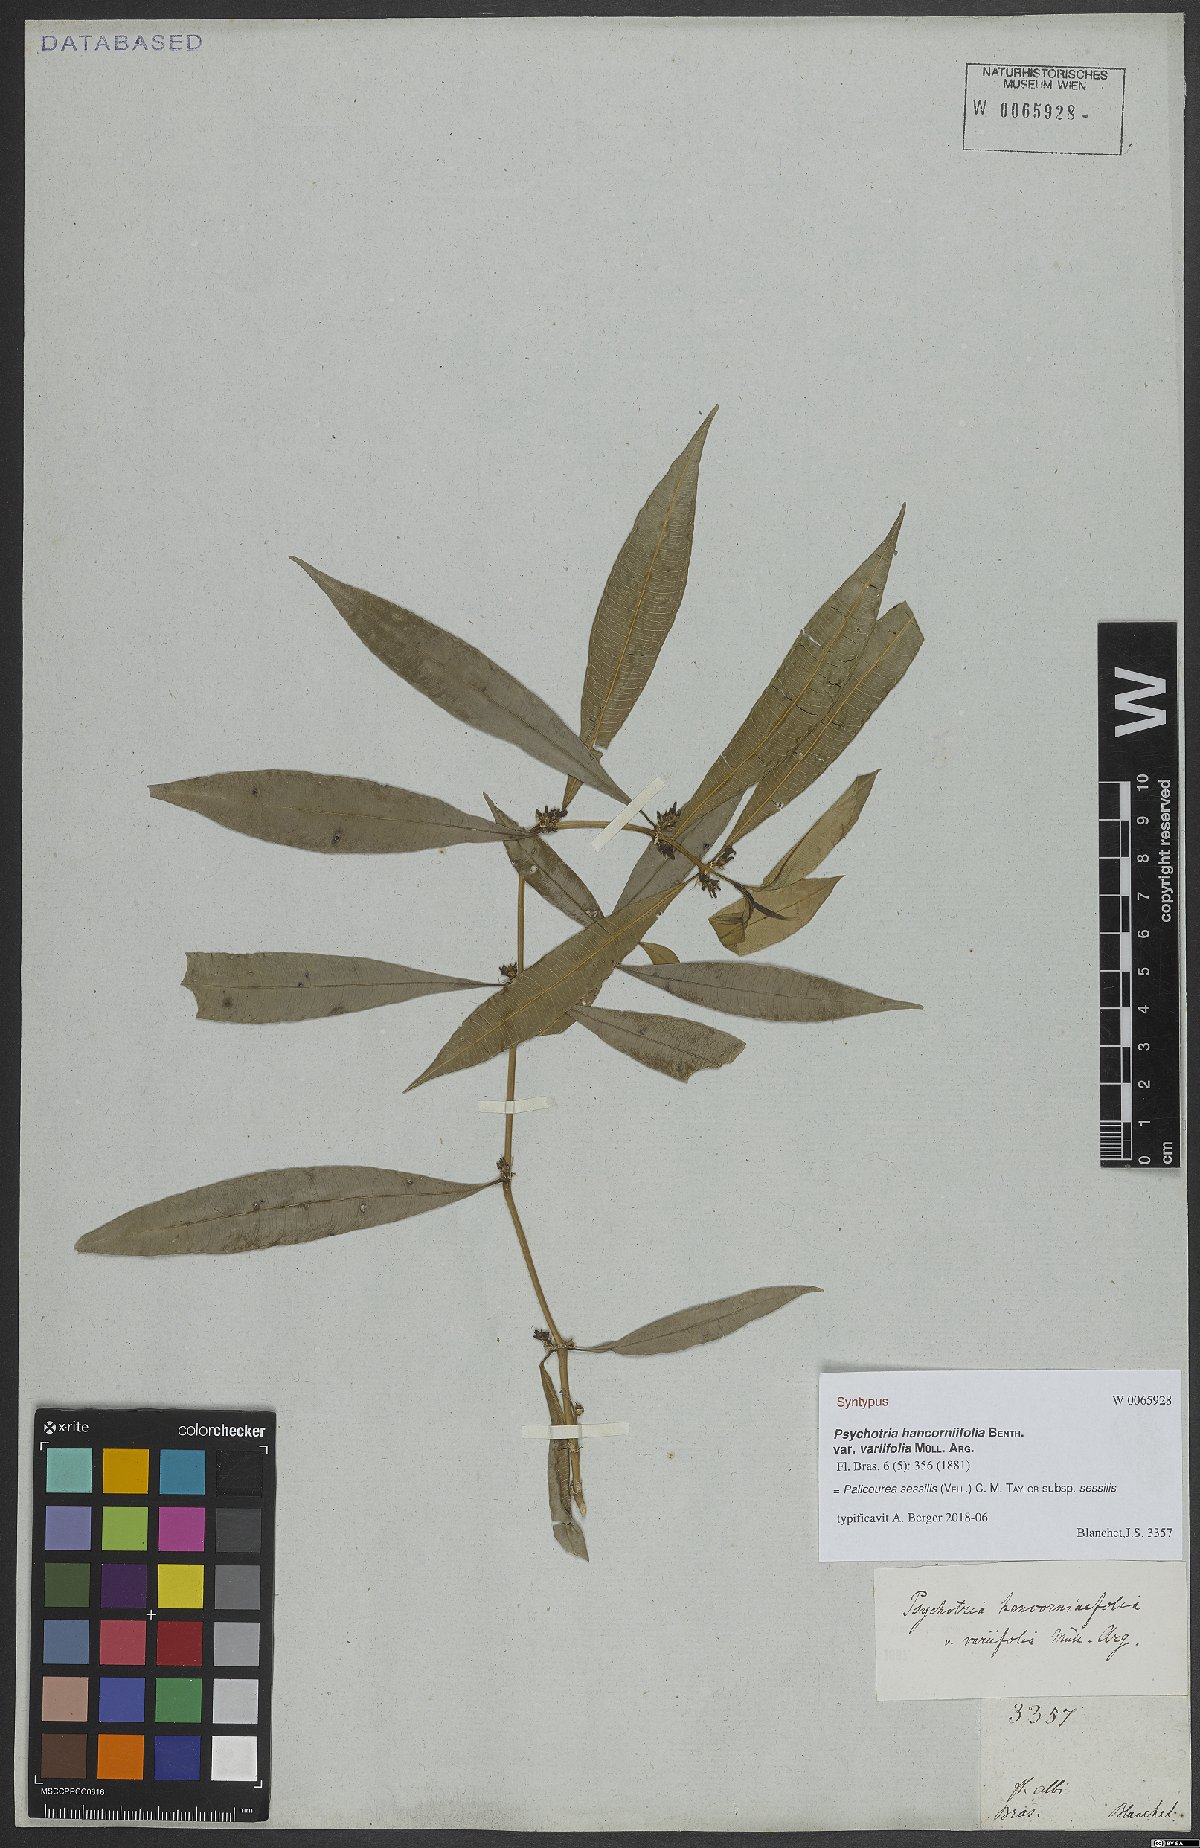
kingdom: Plantae
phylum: Tracheophyta
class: Magnoliopsida
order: Gentianales
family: Rubiaceae
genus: Palicourea
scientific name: Palicourea sessilis
